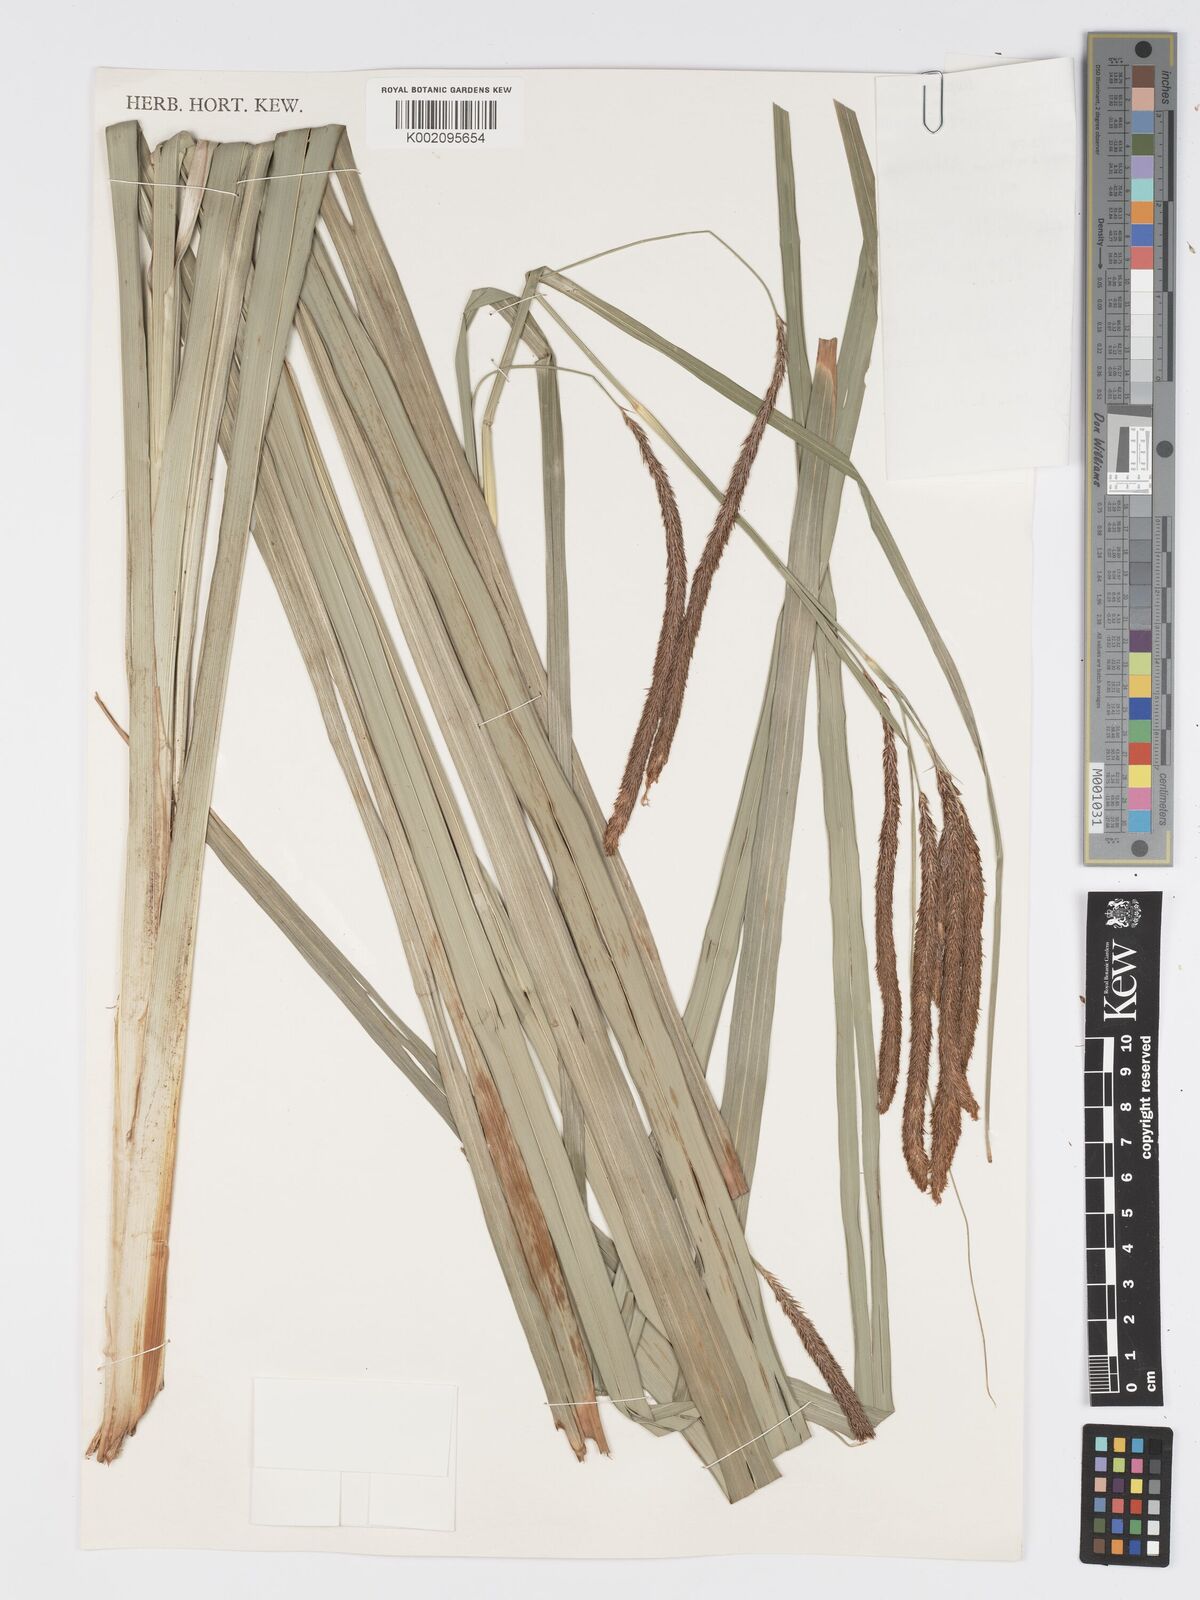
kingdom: Plantae
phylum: Tracheophyta
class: Liliopsida
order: Poales
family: Cyperaceae
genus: Carex
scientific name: Carex bequaertii
